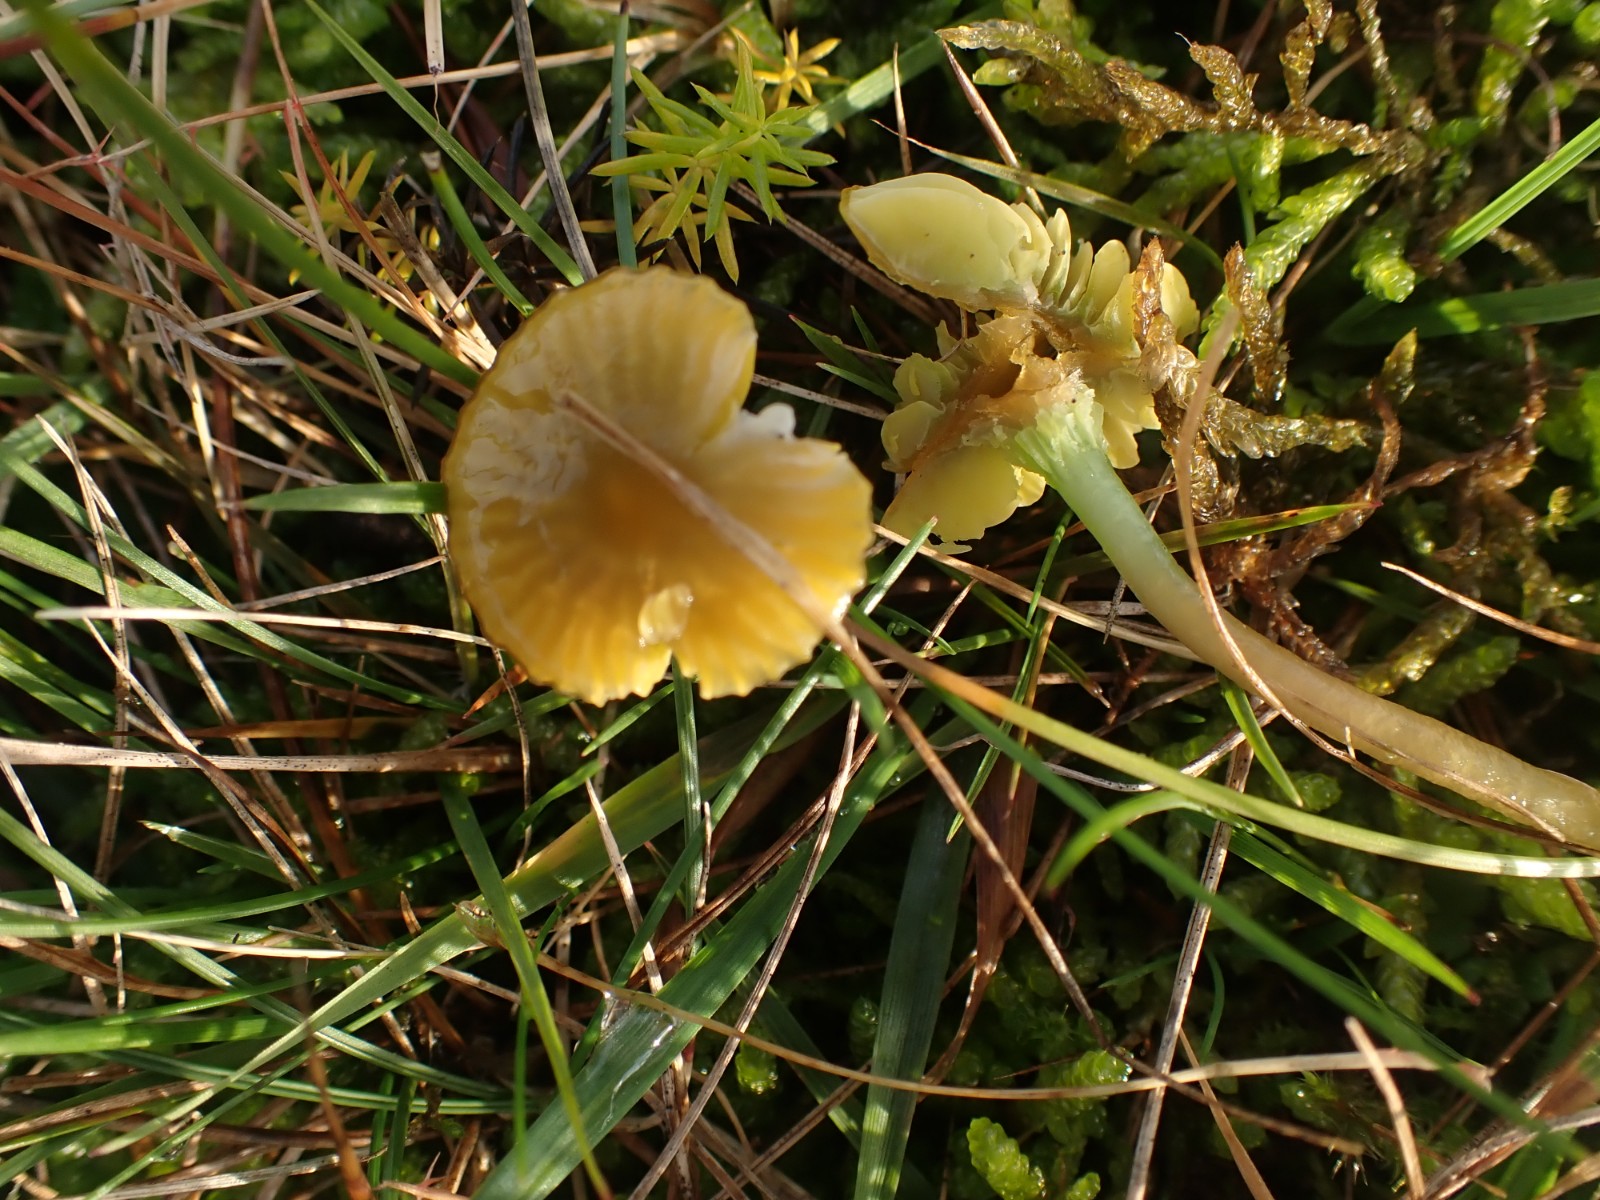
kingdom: Fungi
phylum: Basidiomycota
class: Agaricomycetes
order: Agaricales
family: Hygrophoraceae
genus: Gliophorus
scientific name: Gliophorus psittacinus
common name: papegøje-vokshat
